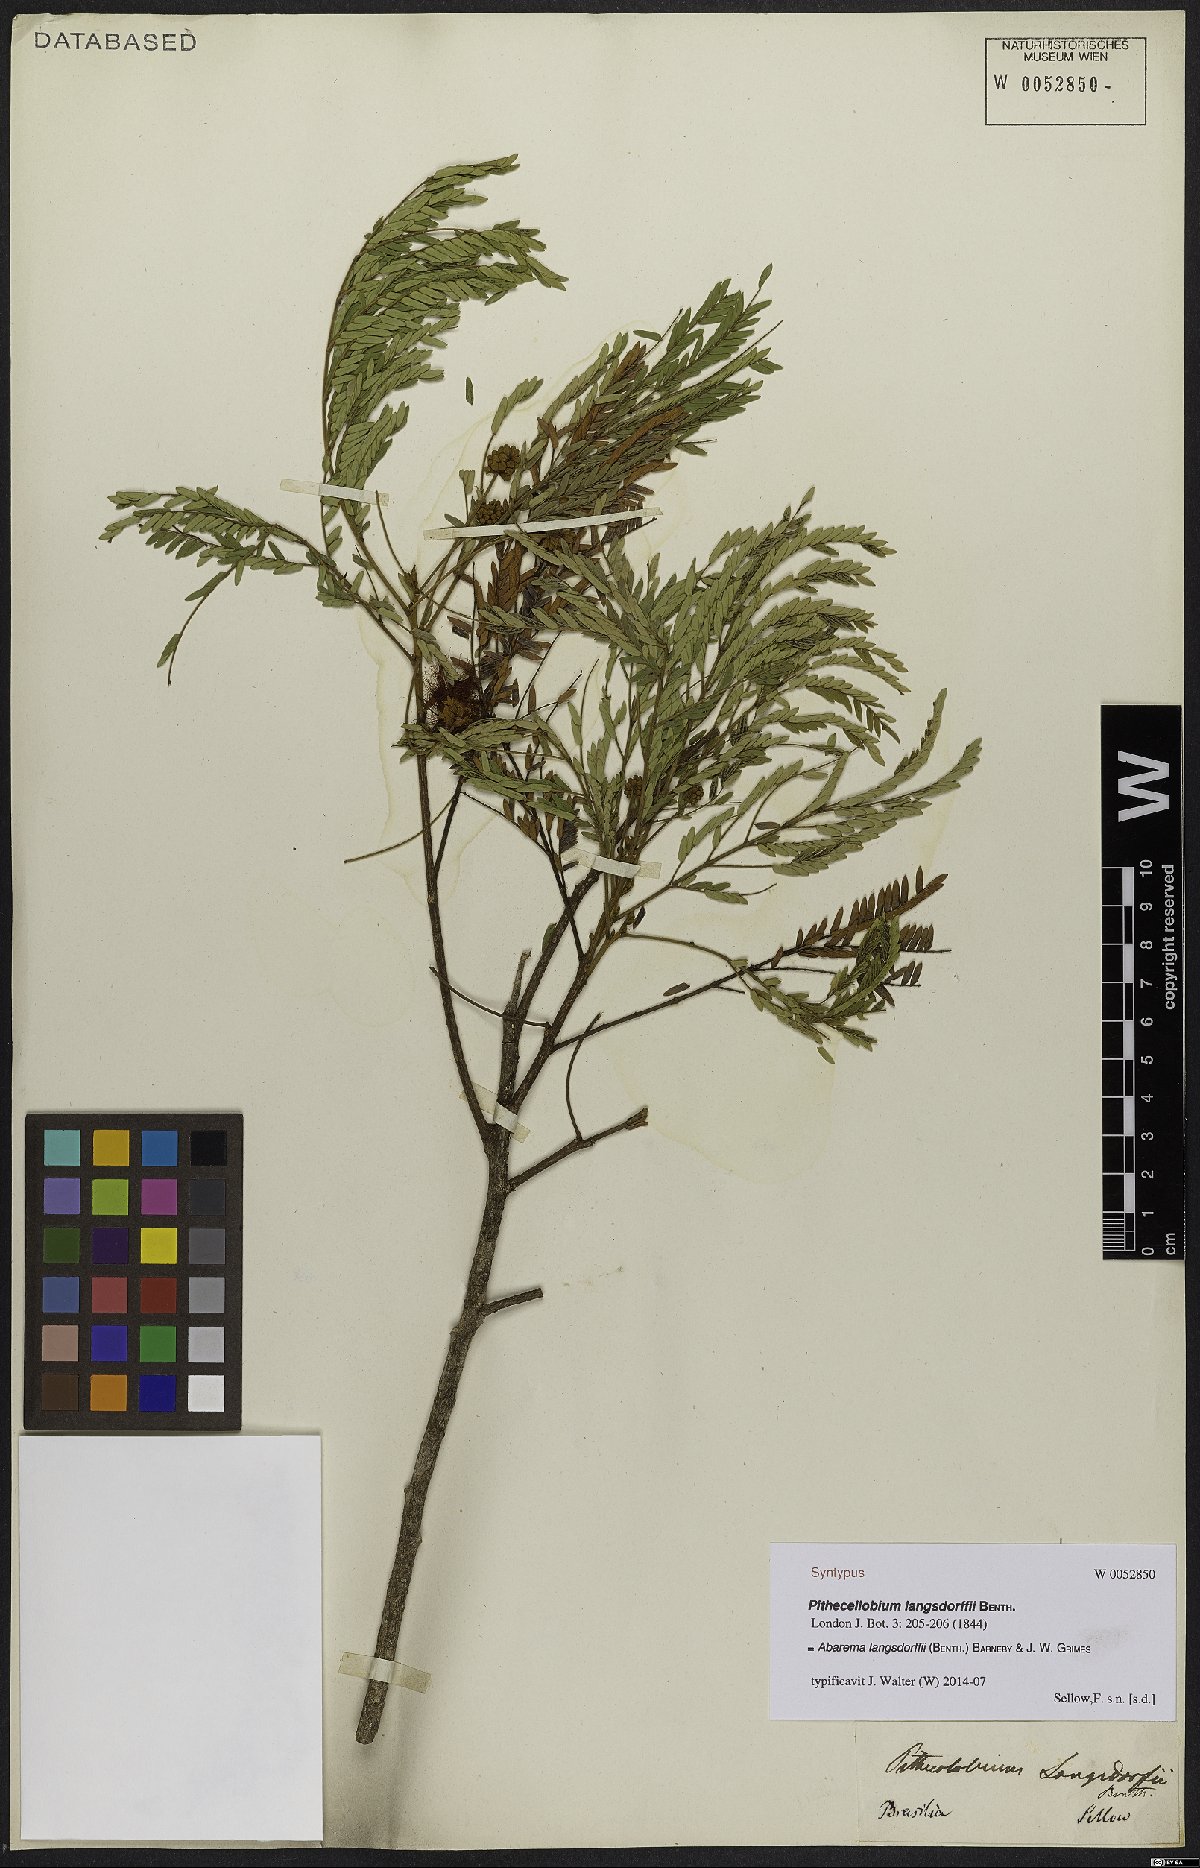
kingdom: Plantae
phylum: Tracheophyta
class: Magnoliopsida
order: Fabales
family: Fabaceae
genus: Jupunba
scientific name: Jupunba langsdorffii
